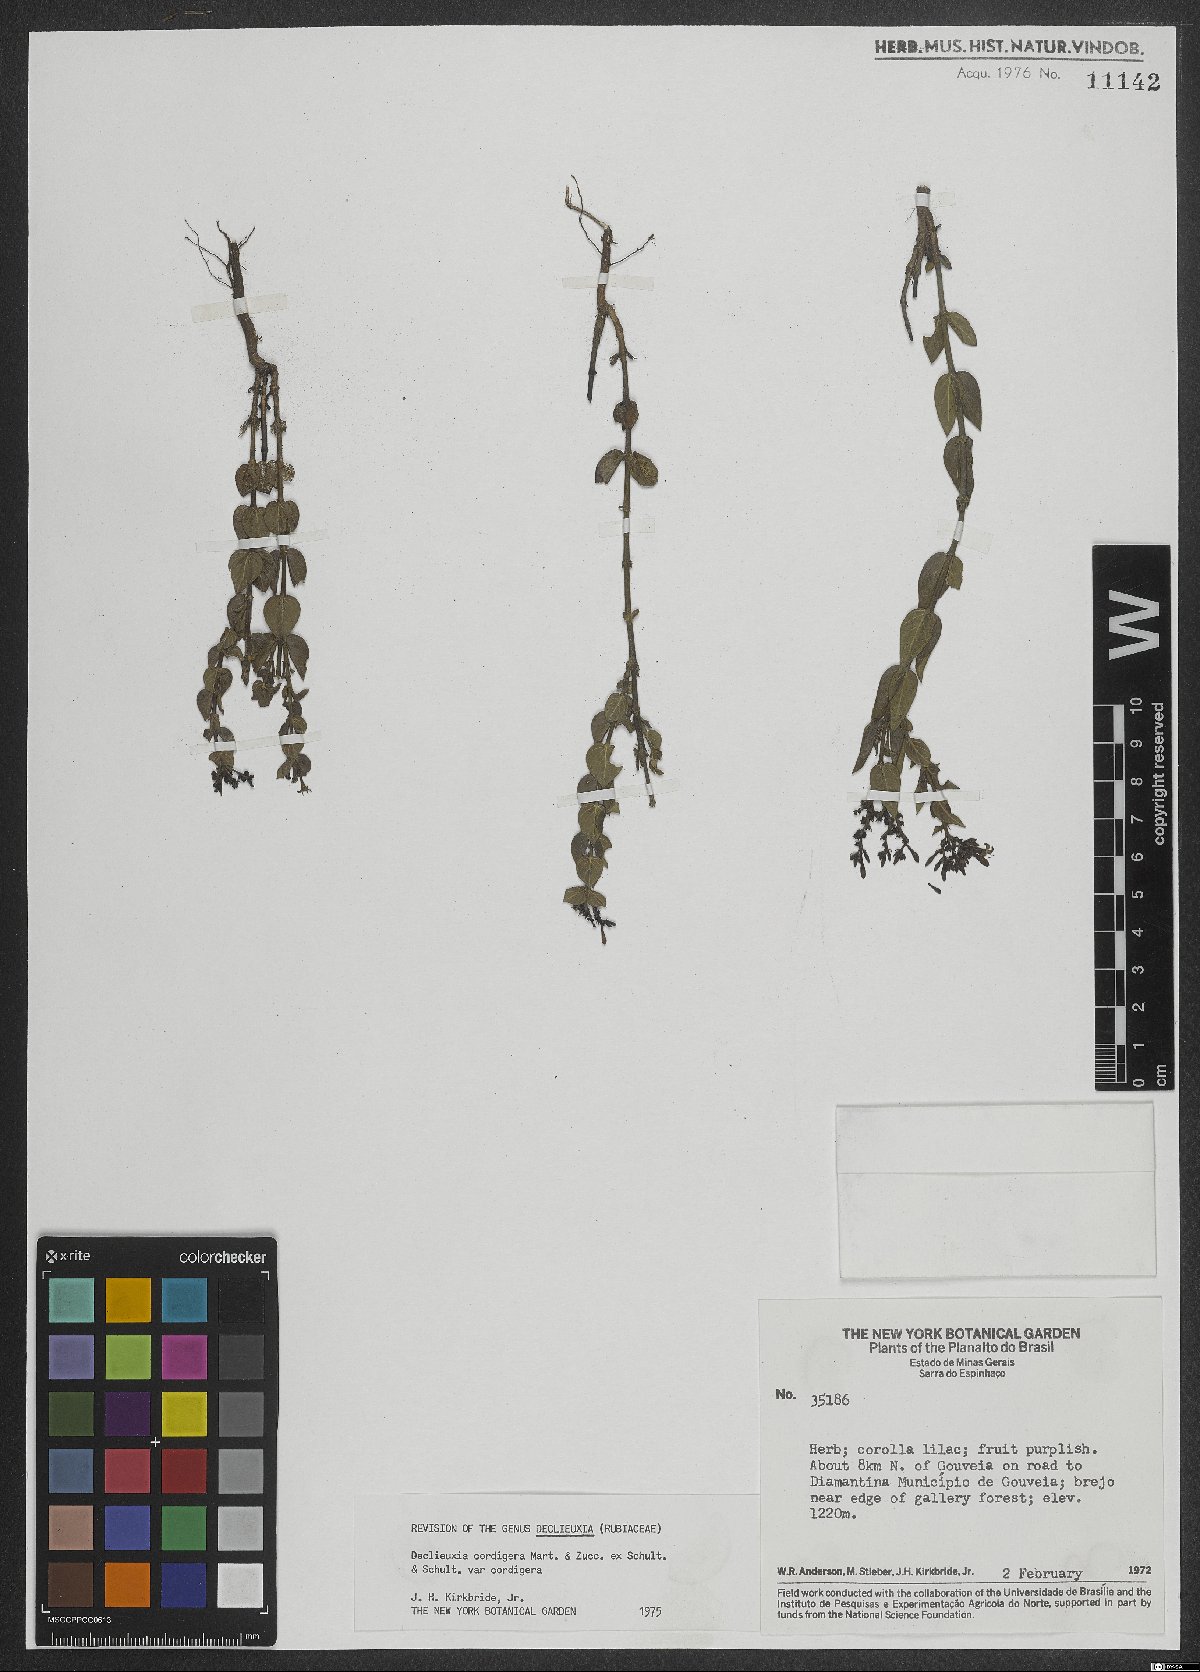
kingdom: Plantae
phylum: Tracheophyta
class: Magnoliopsida
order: Gentianales
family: Rubiaceae
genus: Declieuxia
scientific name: Declieuxia cordigera
